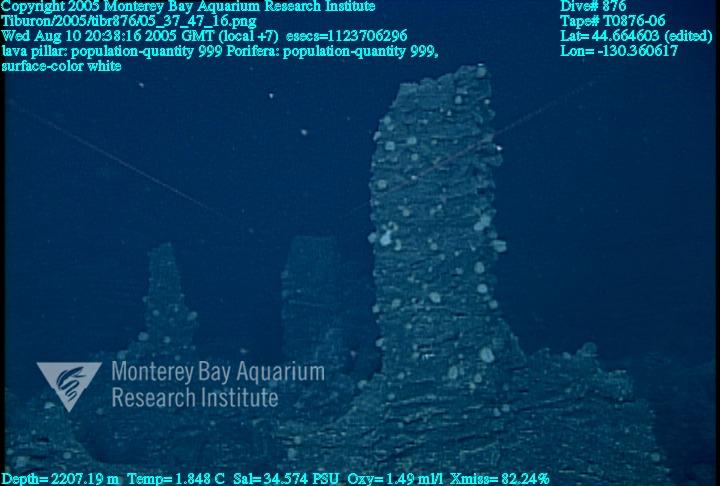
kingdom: Animalia
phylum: Porifera
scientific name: Porifera
